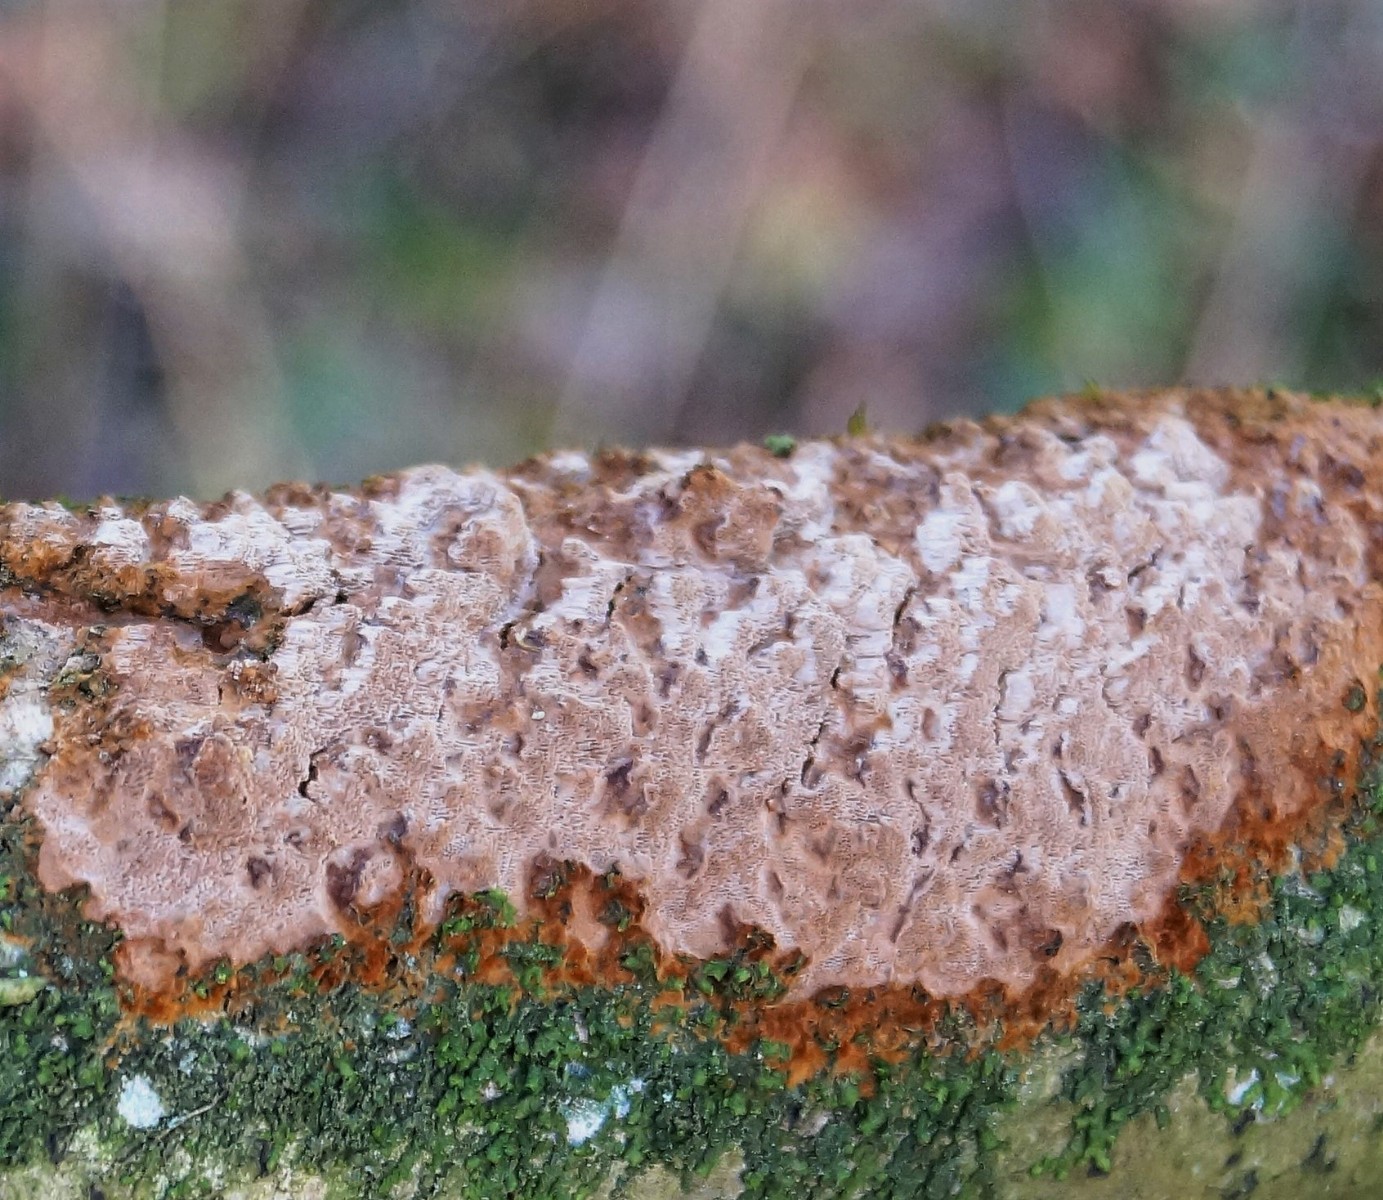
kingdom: Fungi
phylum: Basidiomycota
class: Agaricomycetes
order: Hymenochaetales
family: Hymenochaetaceae
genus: Fuscoporia
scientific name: Fuscoporia
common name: Ildporesvamp
